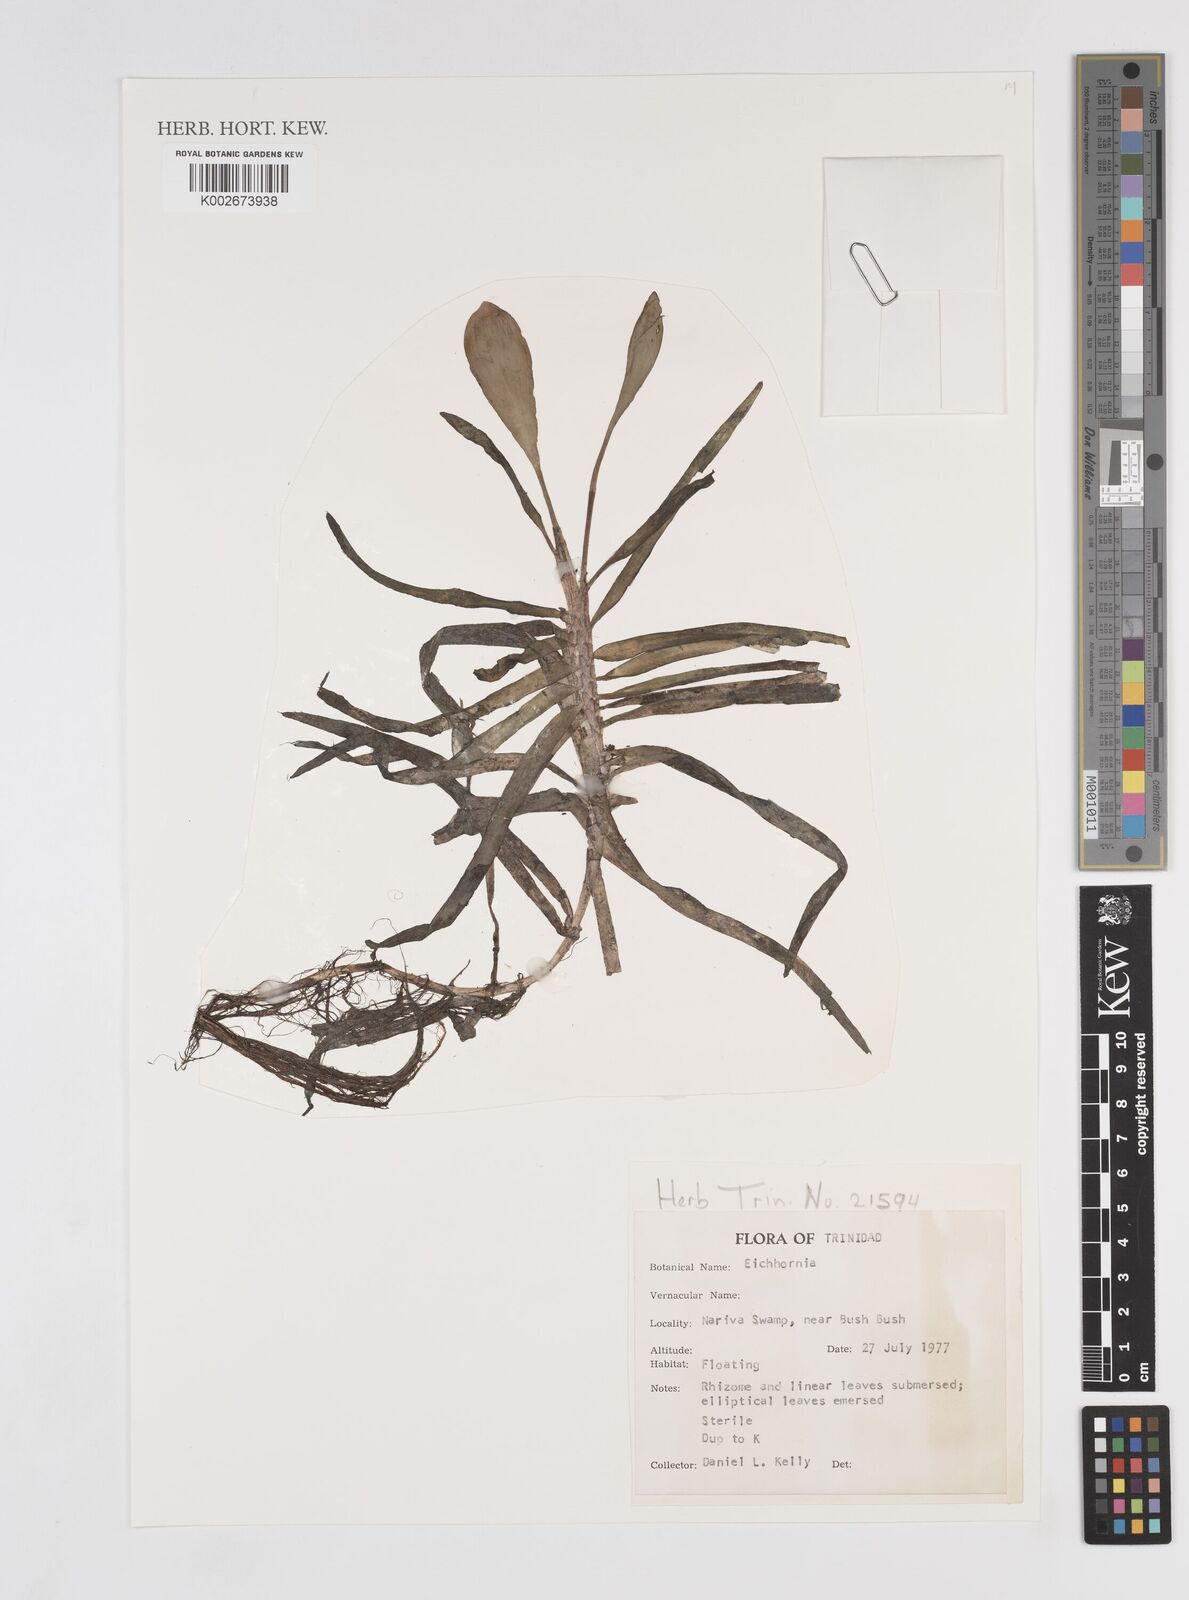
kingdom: Plantae
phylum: Tracheophyta
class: Liliopsida
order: Commelinales
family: Pontederiaceae
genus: Pontederia
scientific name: Pontederia
